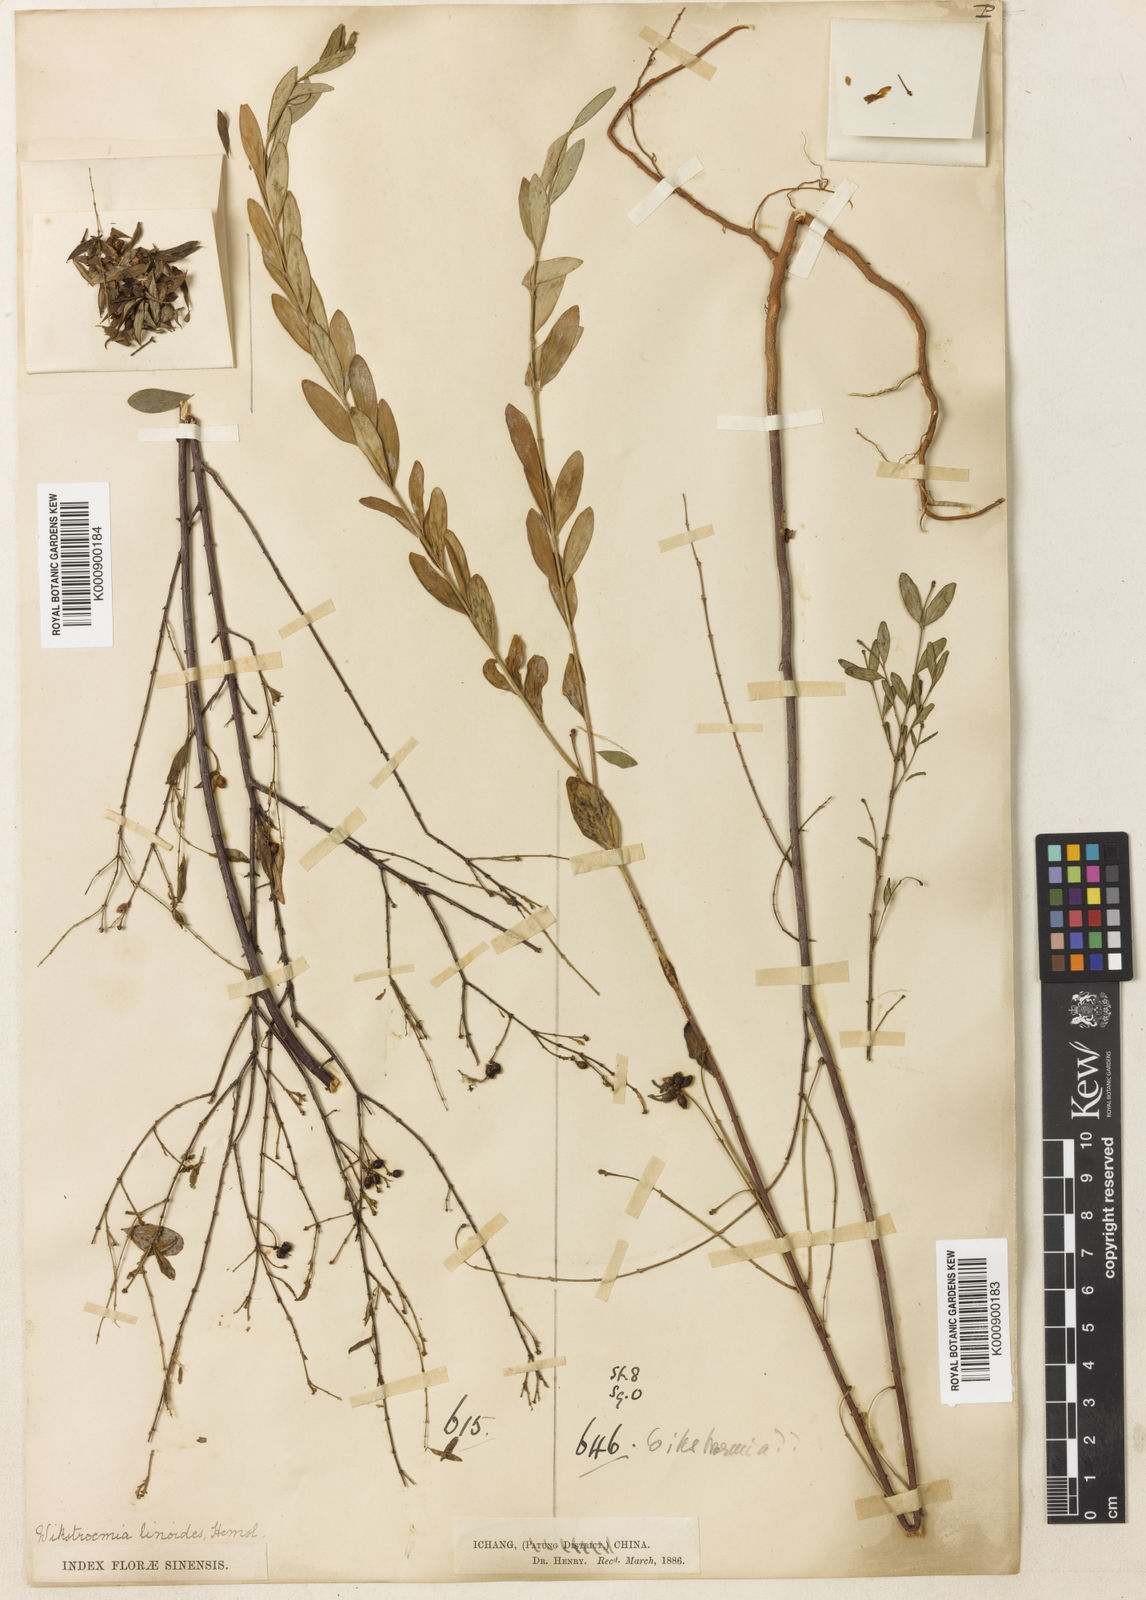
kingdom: Plantae
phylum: Tracheophyta
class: Magnoliopsida
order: Malvales
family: Thymelaeaceae
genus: Wikstroemia
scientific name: Wikstroemia linoides
